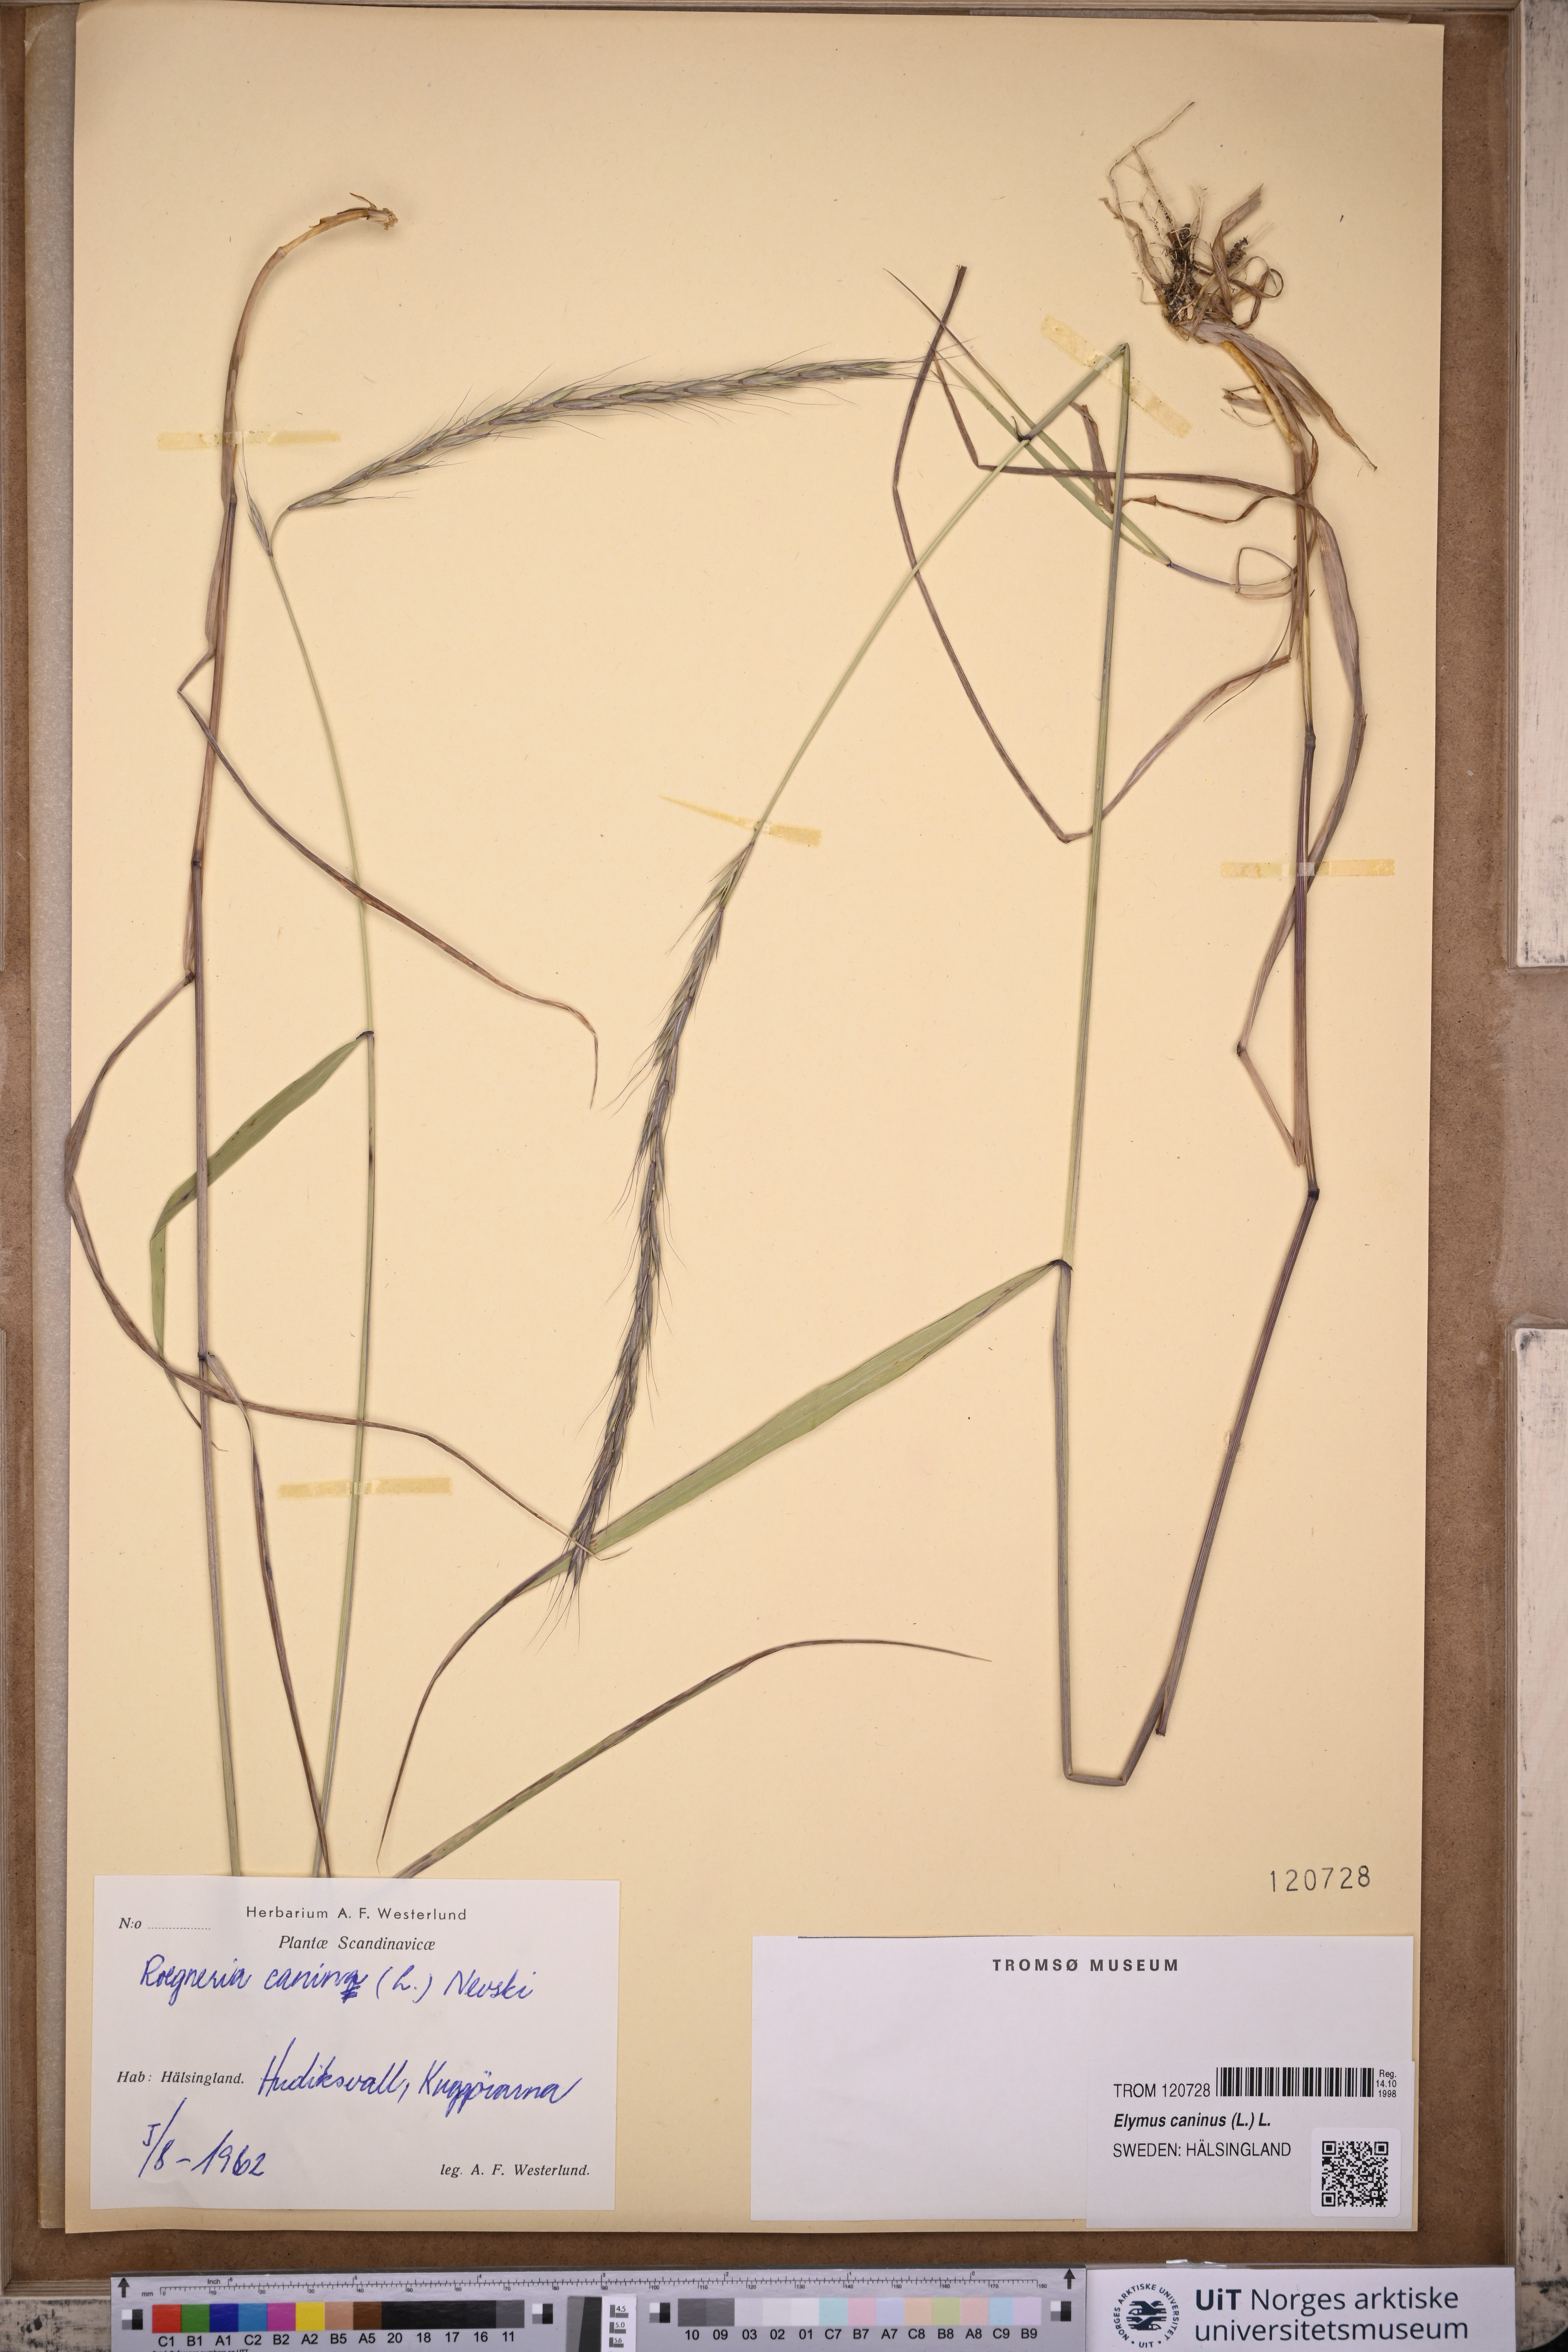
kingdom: Plantae
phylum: Tracheophyta
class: Liliopsida
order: Poales
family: Poaceae
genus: Elymus
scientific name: Elymus caninus
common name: Bearded couch
